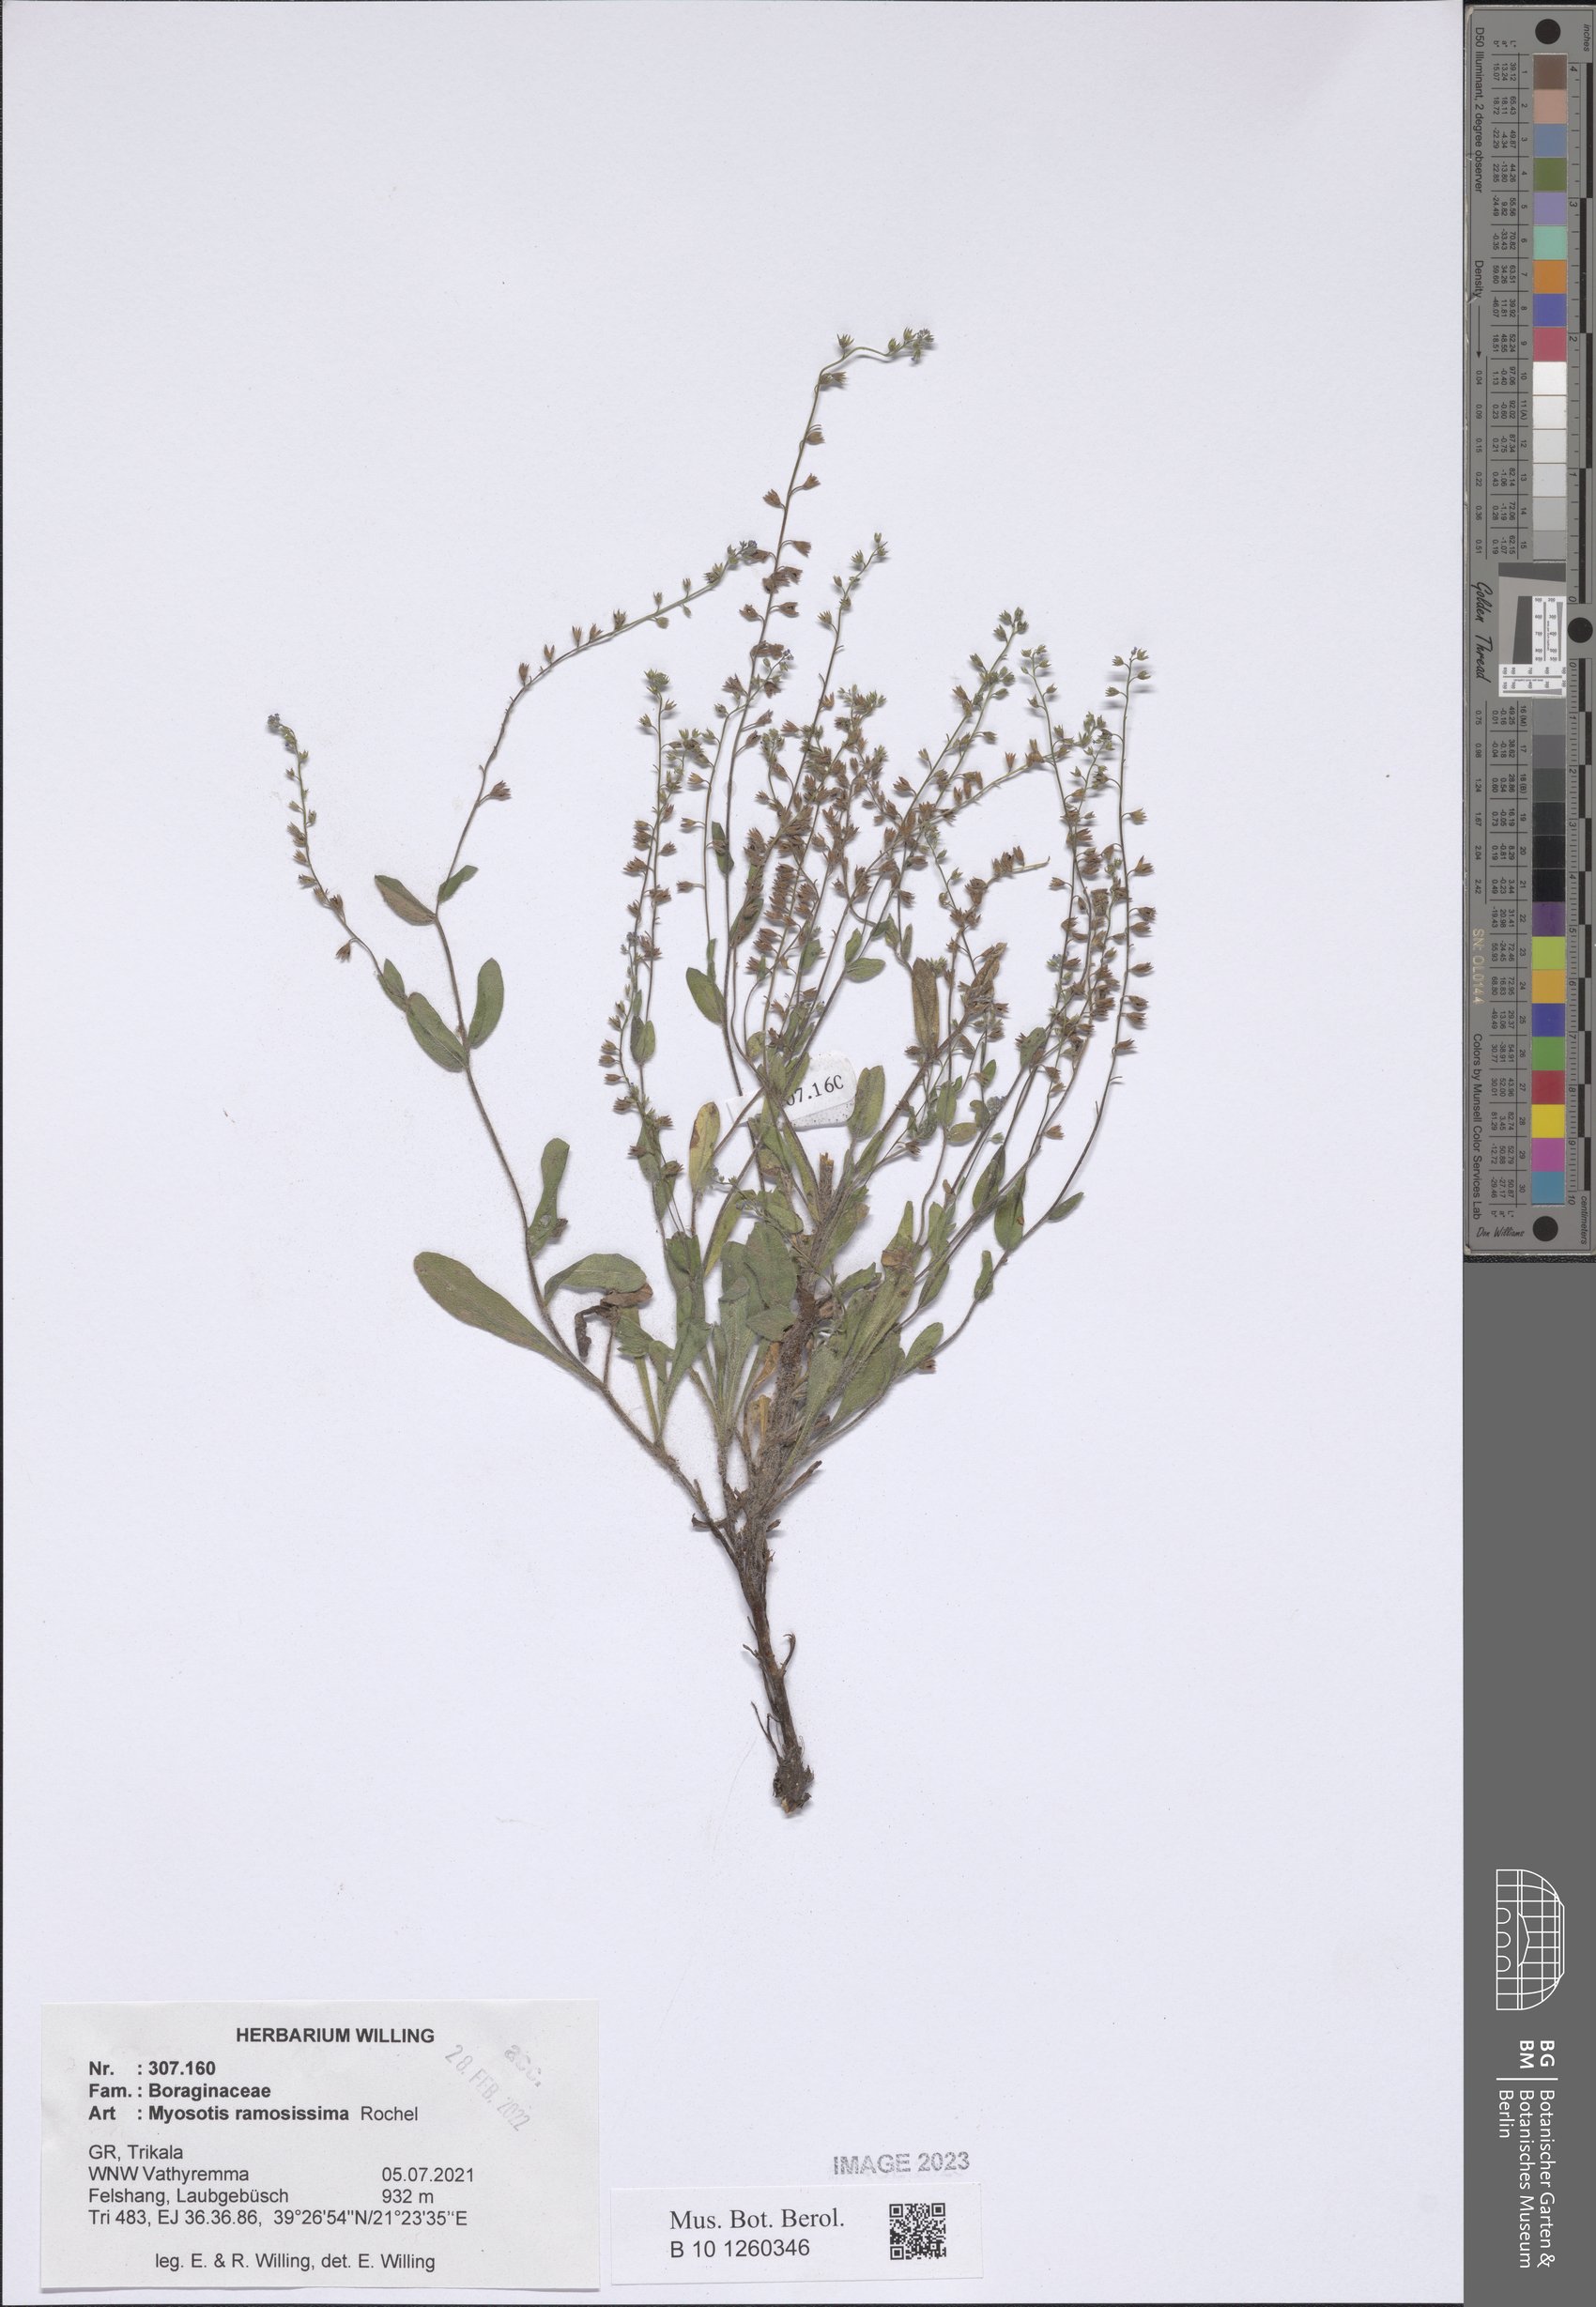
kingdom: Plantae
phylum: Tracheophyta
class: Magnoliopsida
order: Boraginales
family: Boraginaceae
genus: Myosotis
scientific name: Myosotis ramosissima
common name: Early forget-me-not
